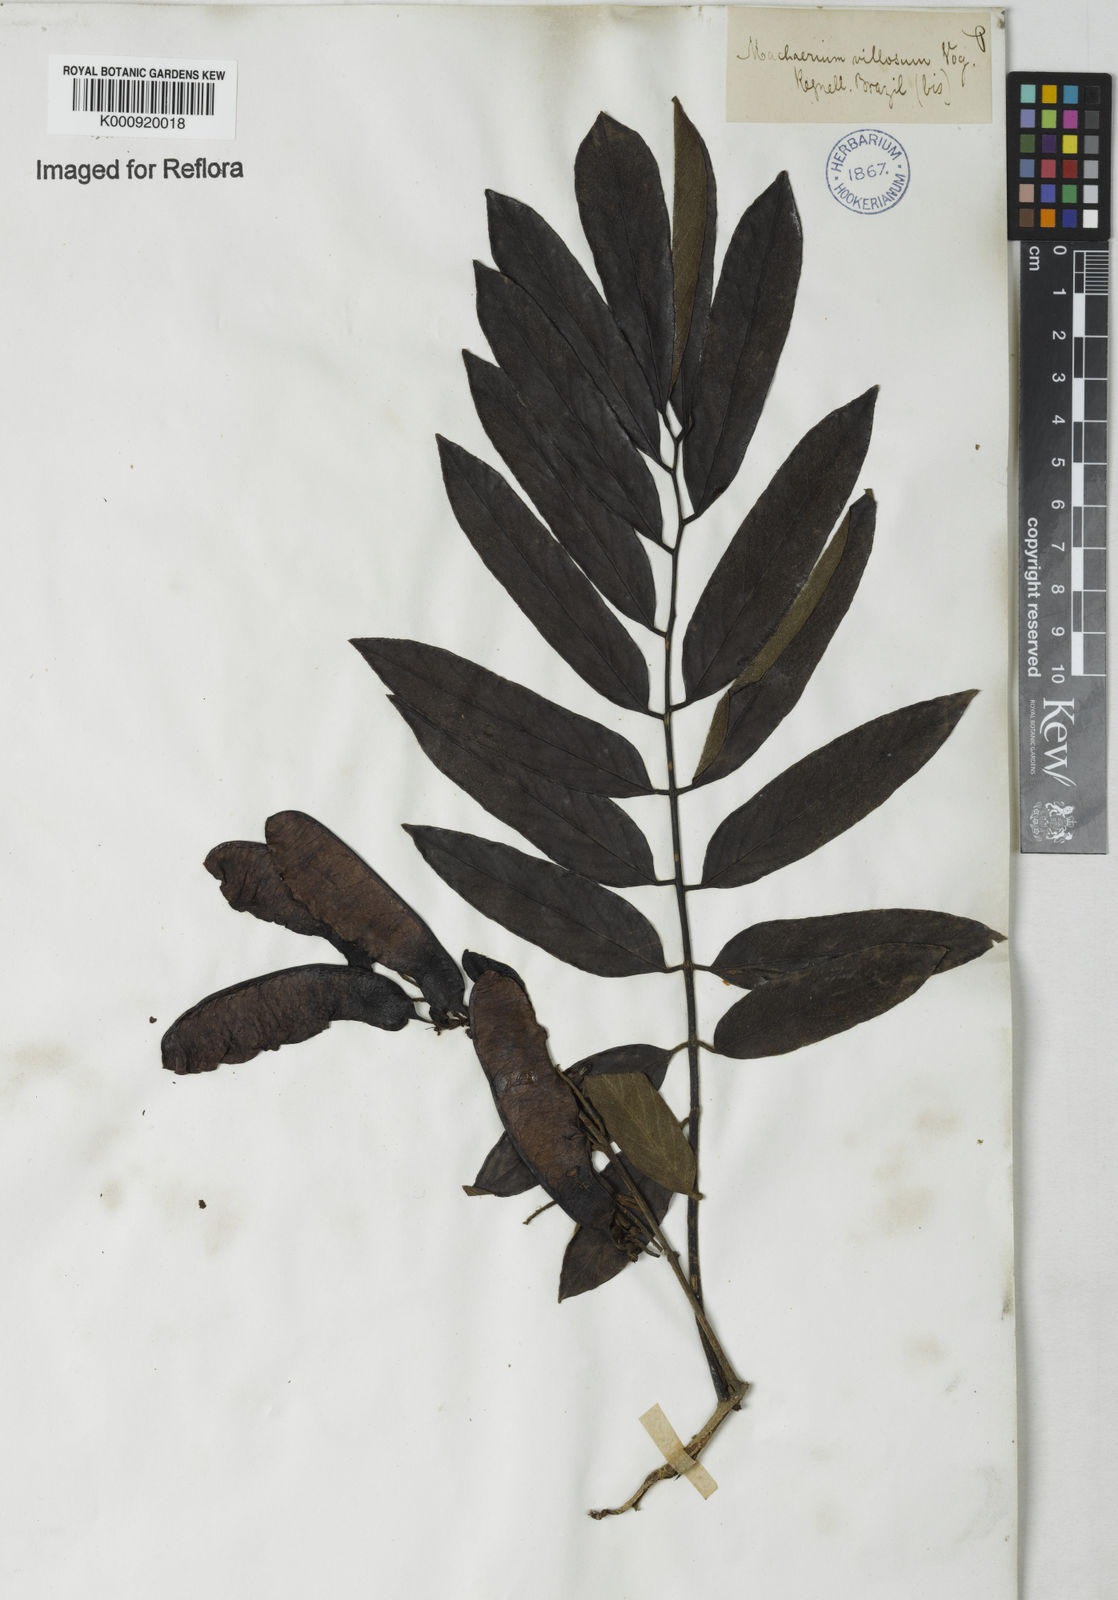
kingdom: Plantae
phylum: Tracheophyta
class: Magnoliopsida
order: Fabales
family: Fabaceae
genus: Machaerium
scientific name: Machaerium villosum
